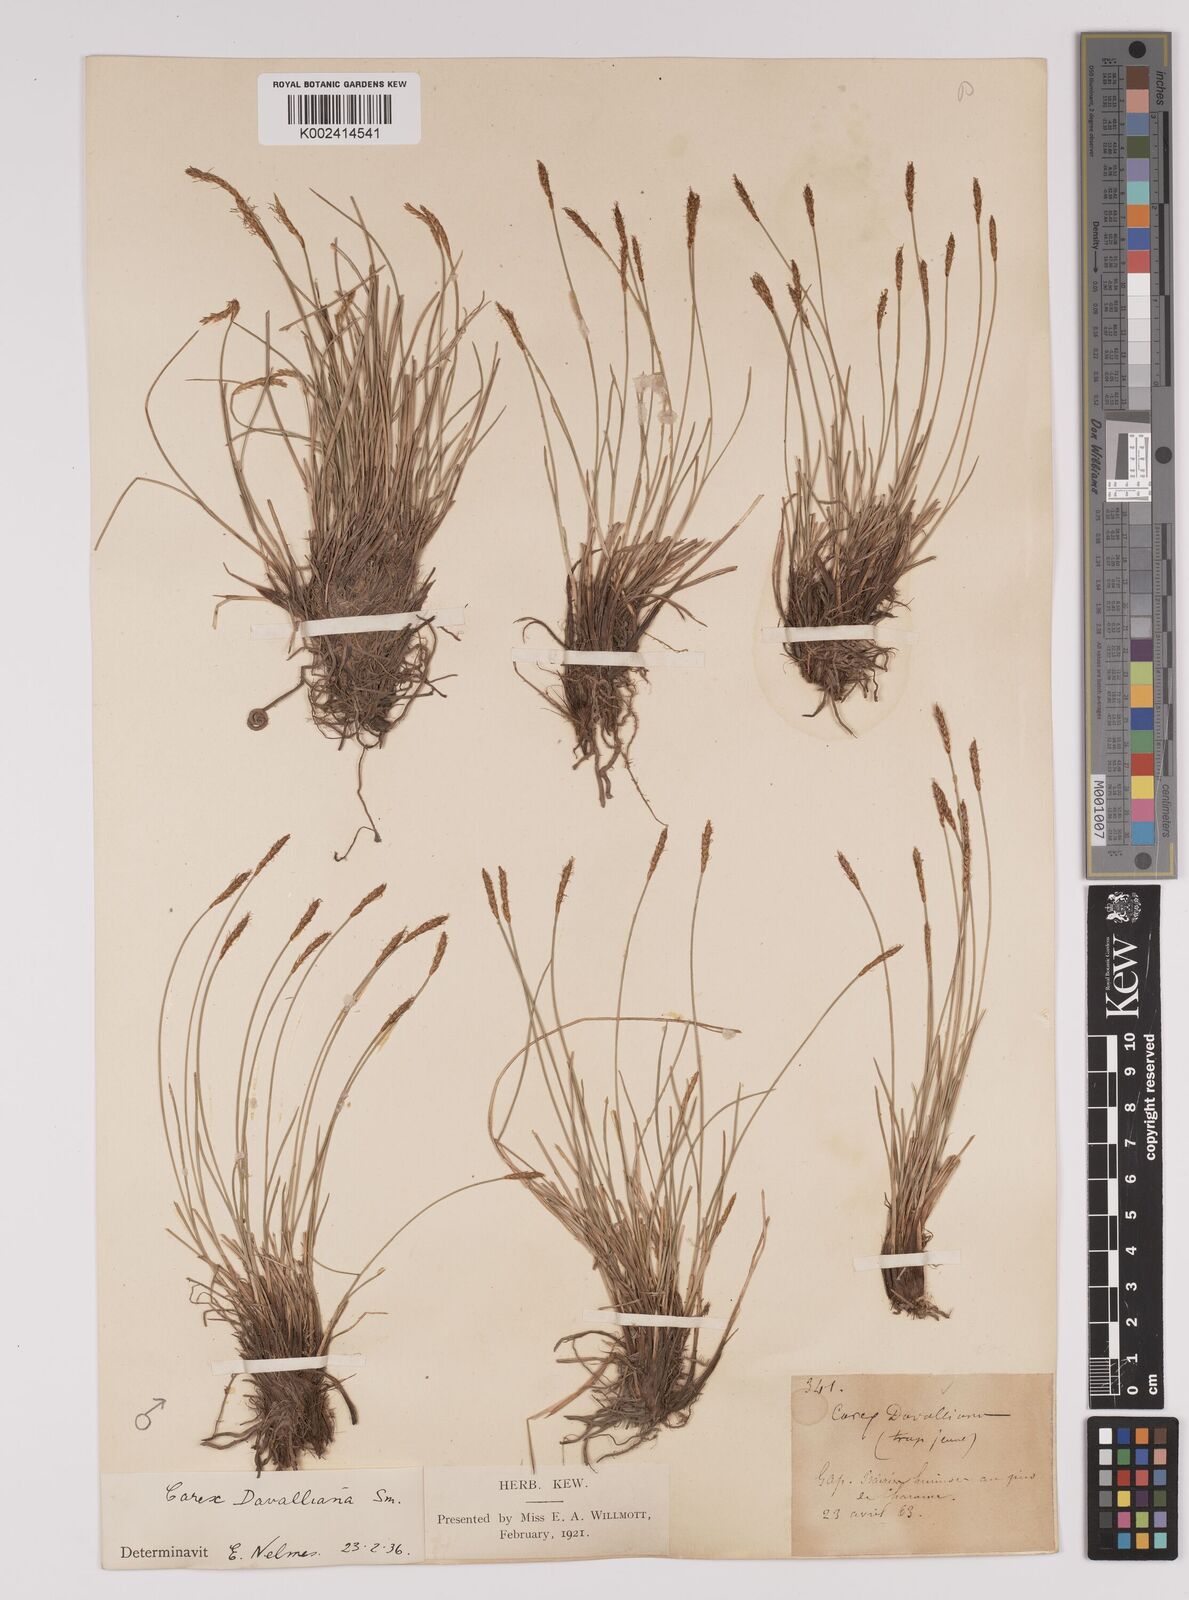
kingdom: Plantae
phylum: Tracheophyta
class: Liliopsida
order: Poales
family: Cyperaceae
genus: Carex
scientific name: Carex davalliana
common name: Davall's sedge
